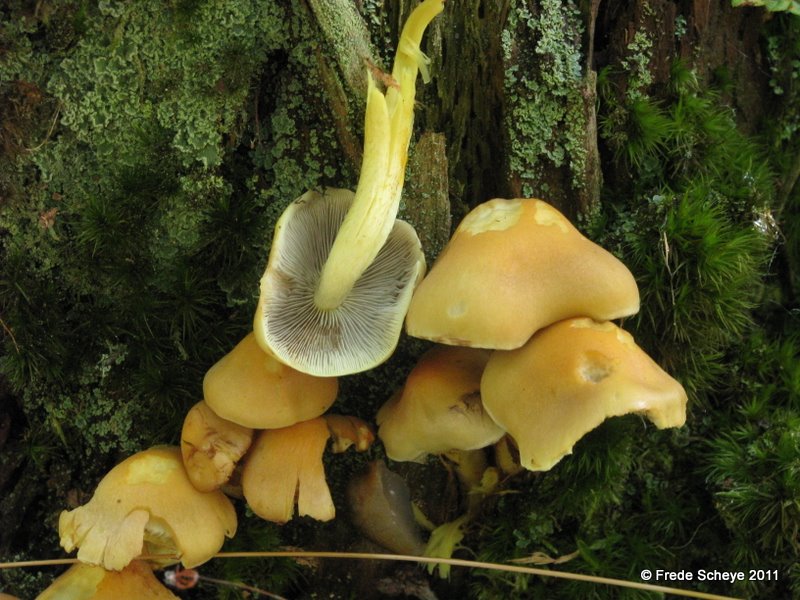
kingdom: Fungi
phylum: Basidiomycota
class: Agaricomycetes
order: Agaricales
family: Strophariaceae
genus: Hypholoma
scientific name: Hypholoma fasciculare
